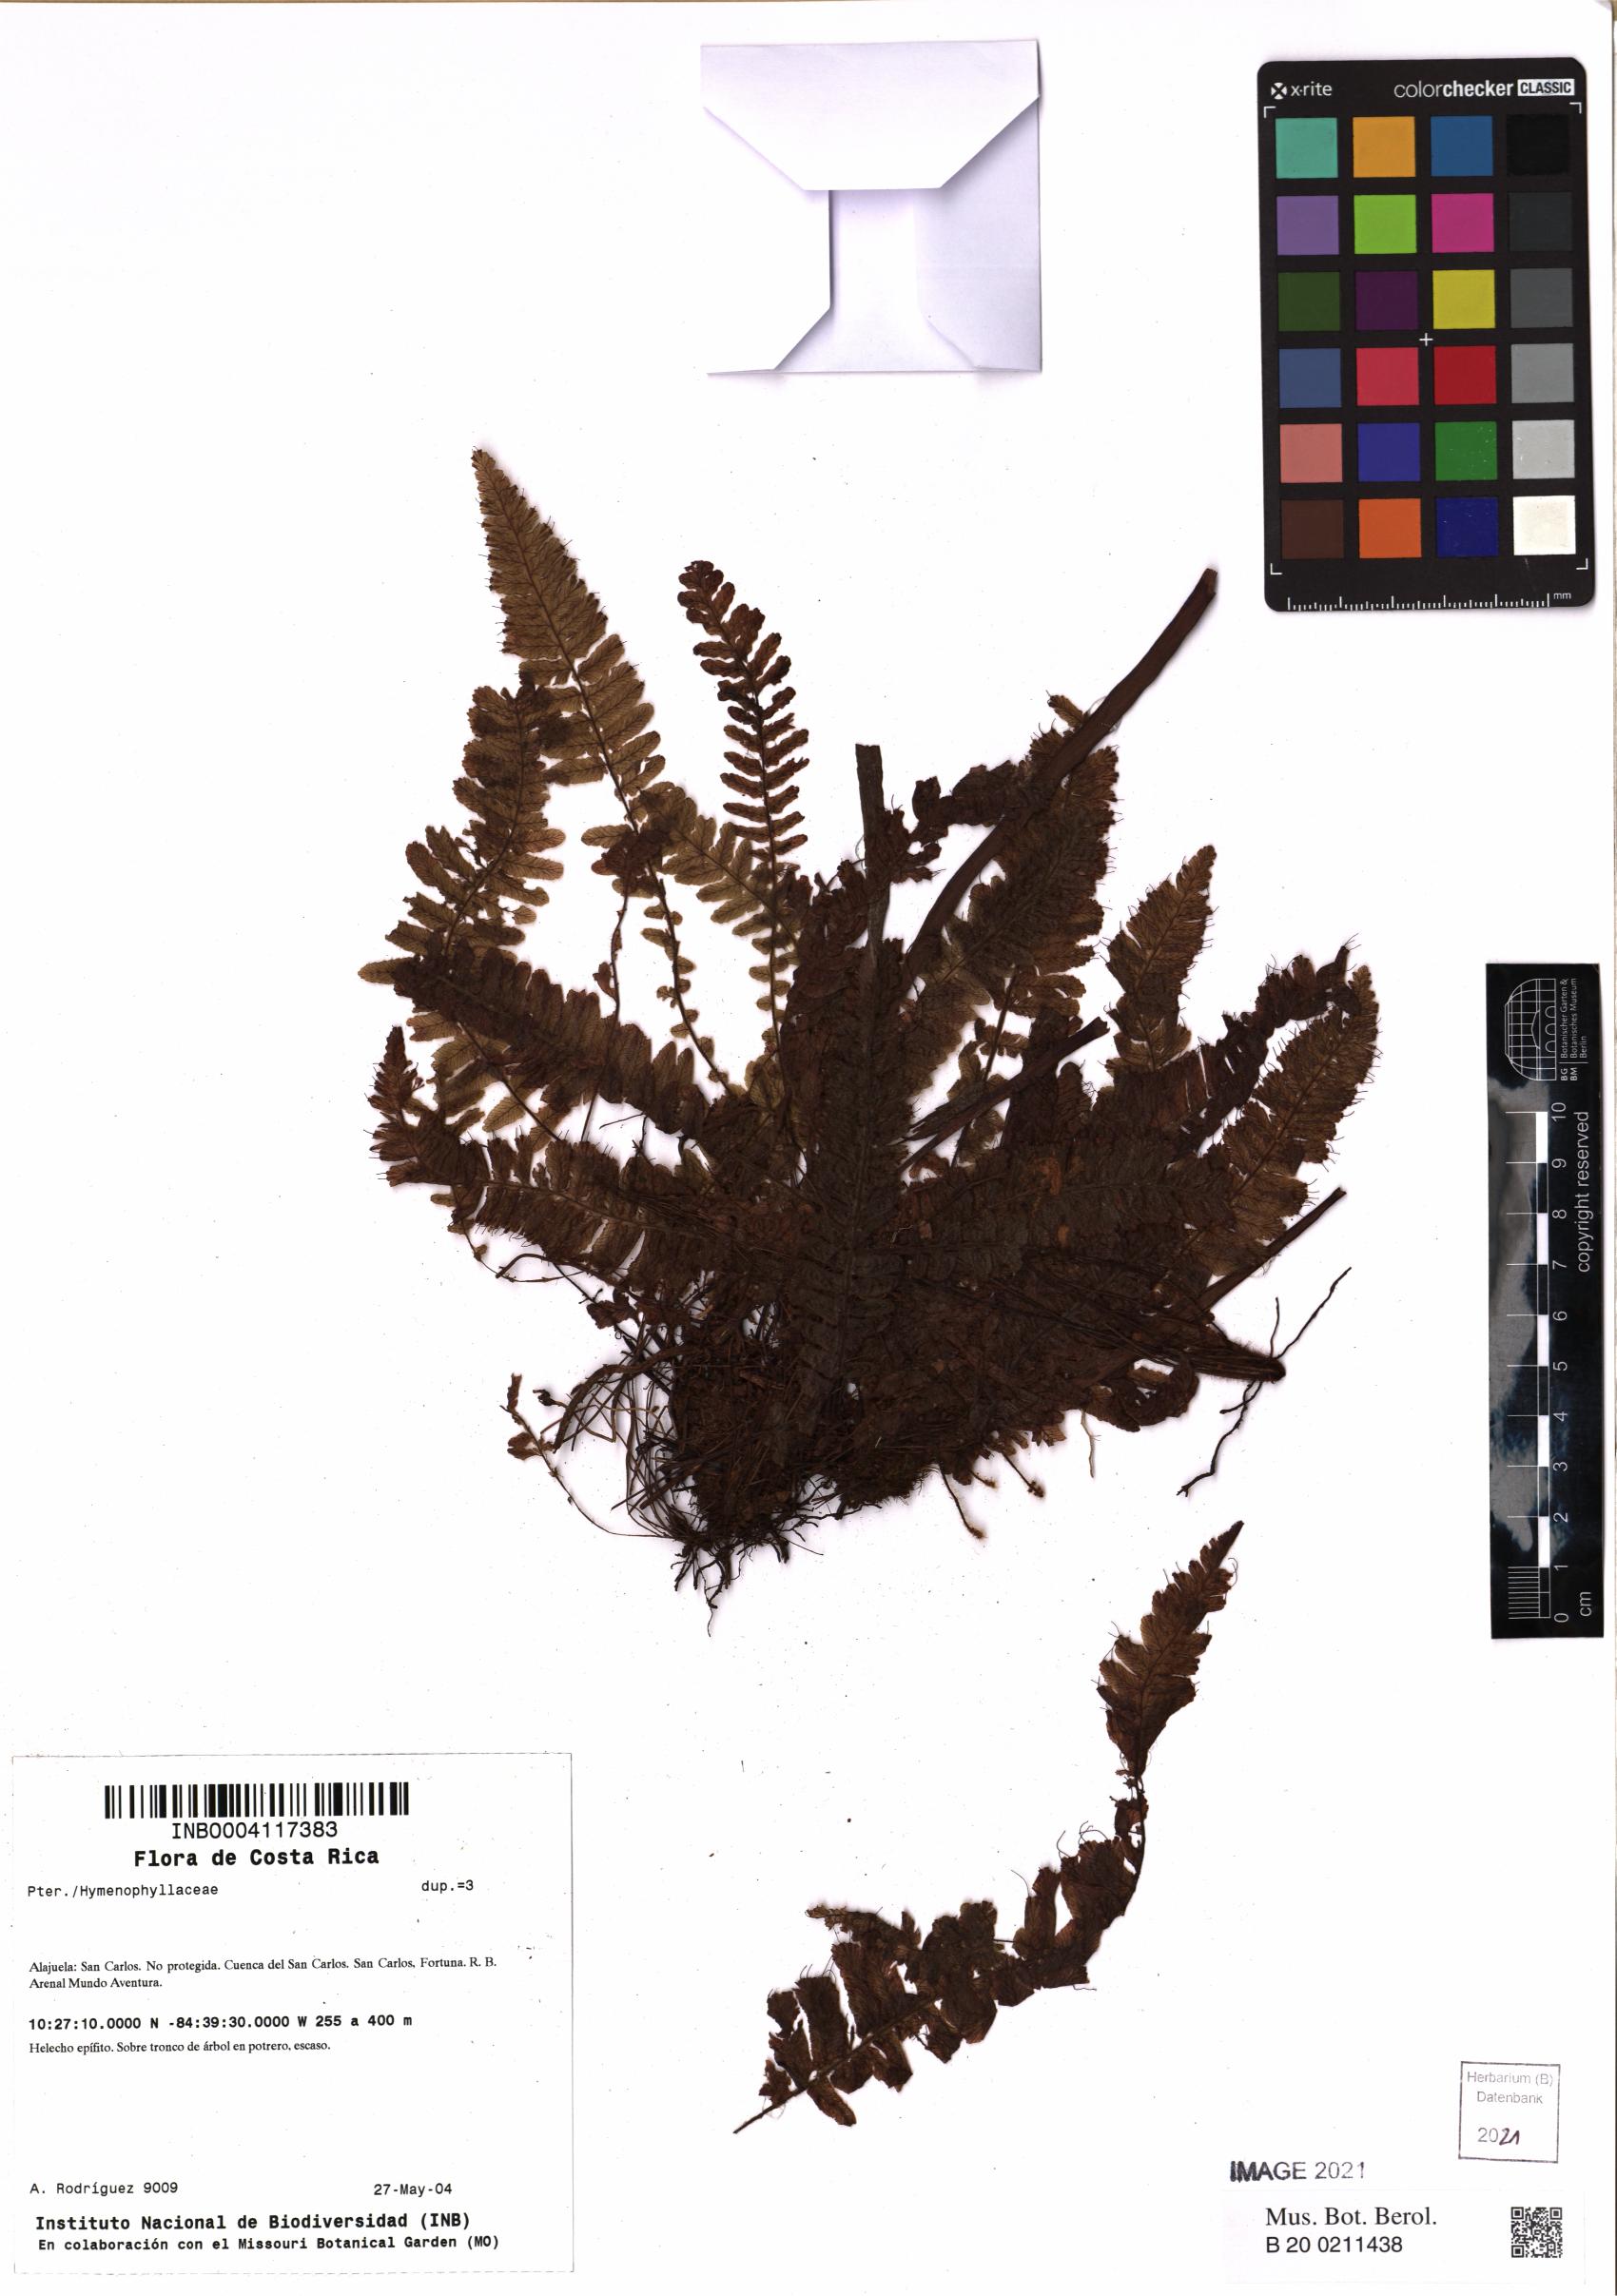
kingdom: Plantae
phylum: Tracheophyta
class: Polypodiopsida
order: Hymenophyllales
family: Hymenophyllaceae
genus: Trichomanes
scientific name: Trichomanes
